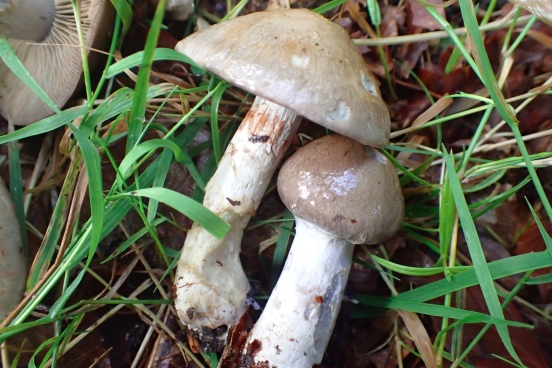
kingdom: Fungi
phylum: Basidiomycota
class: Agaricomycetes
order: Agaricales
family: Cortinariaceae
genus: Cortinarius
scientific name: Cortinarius largus
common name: violetrandet slørhat
